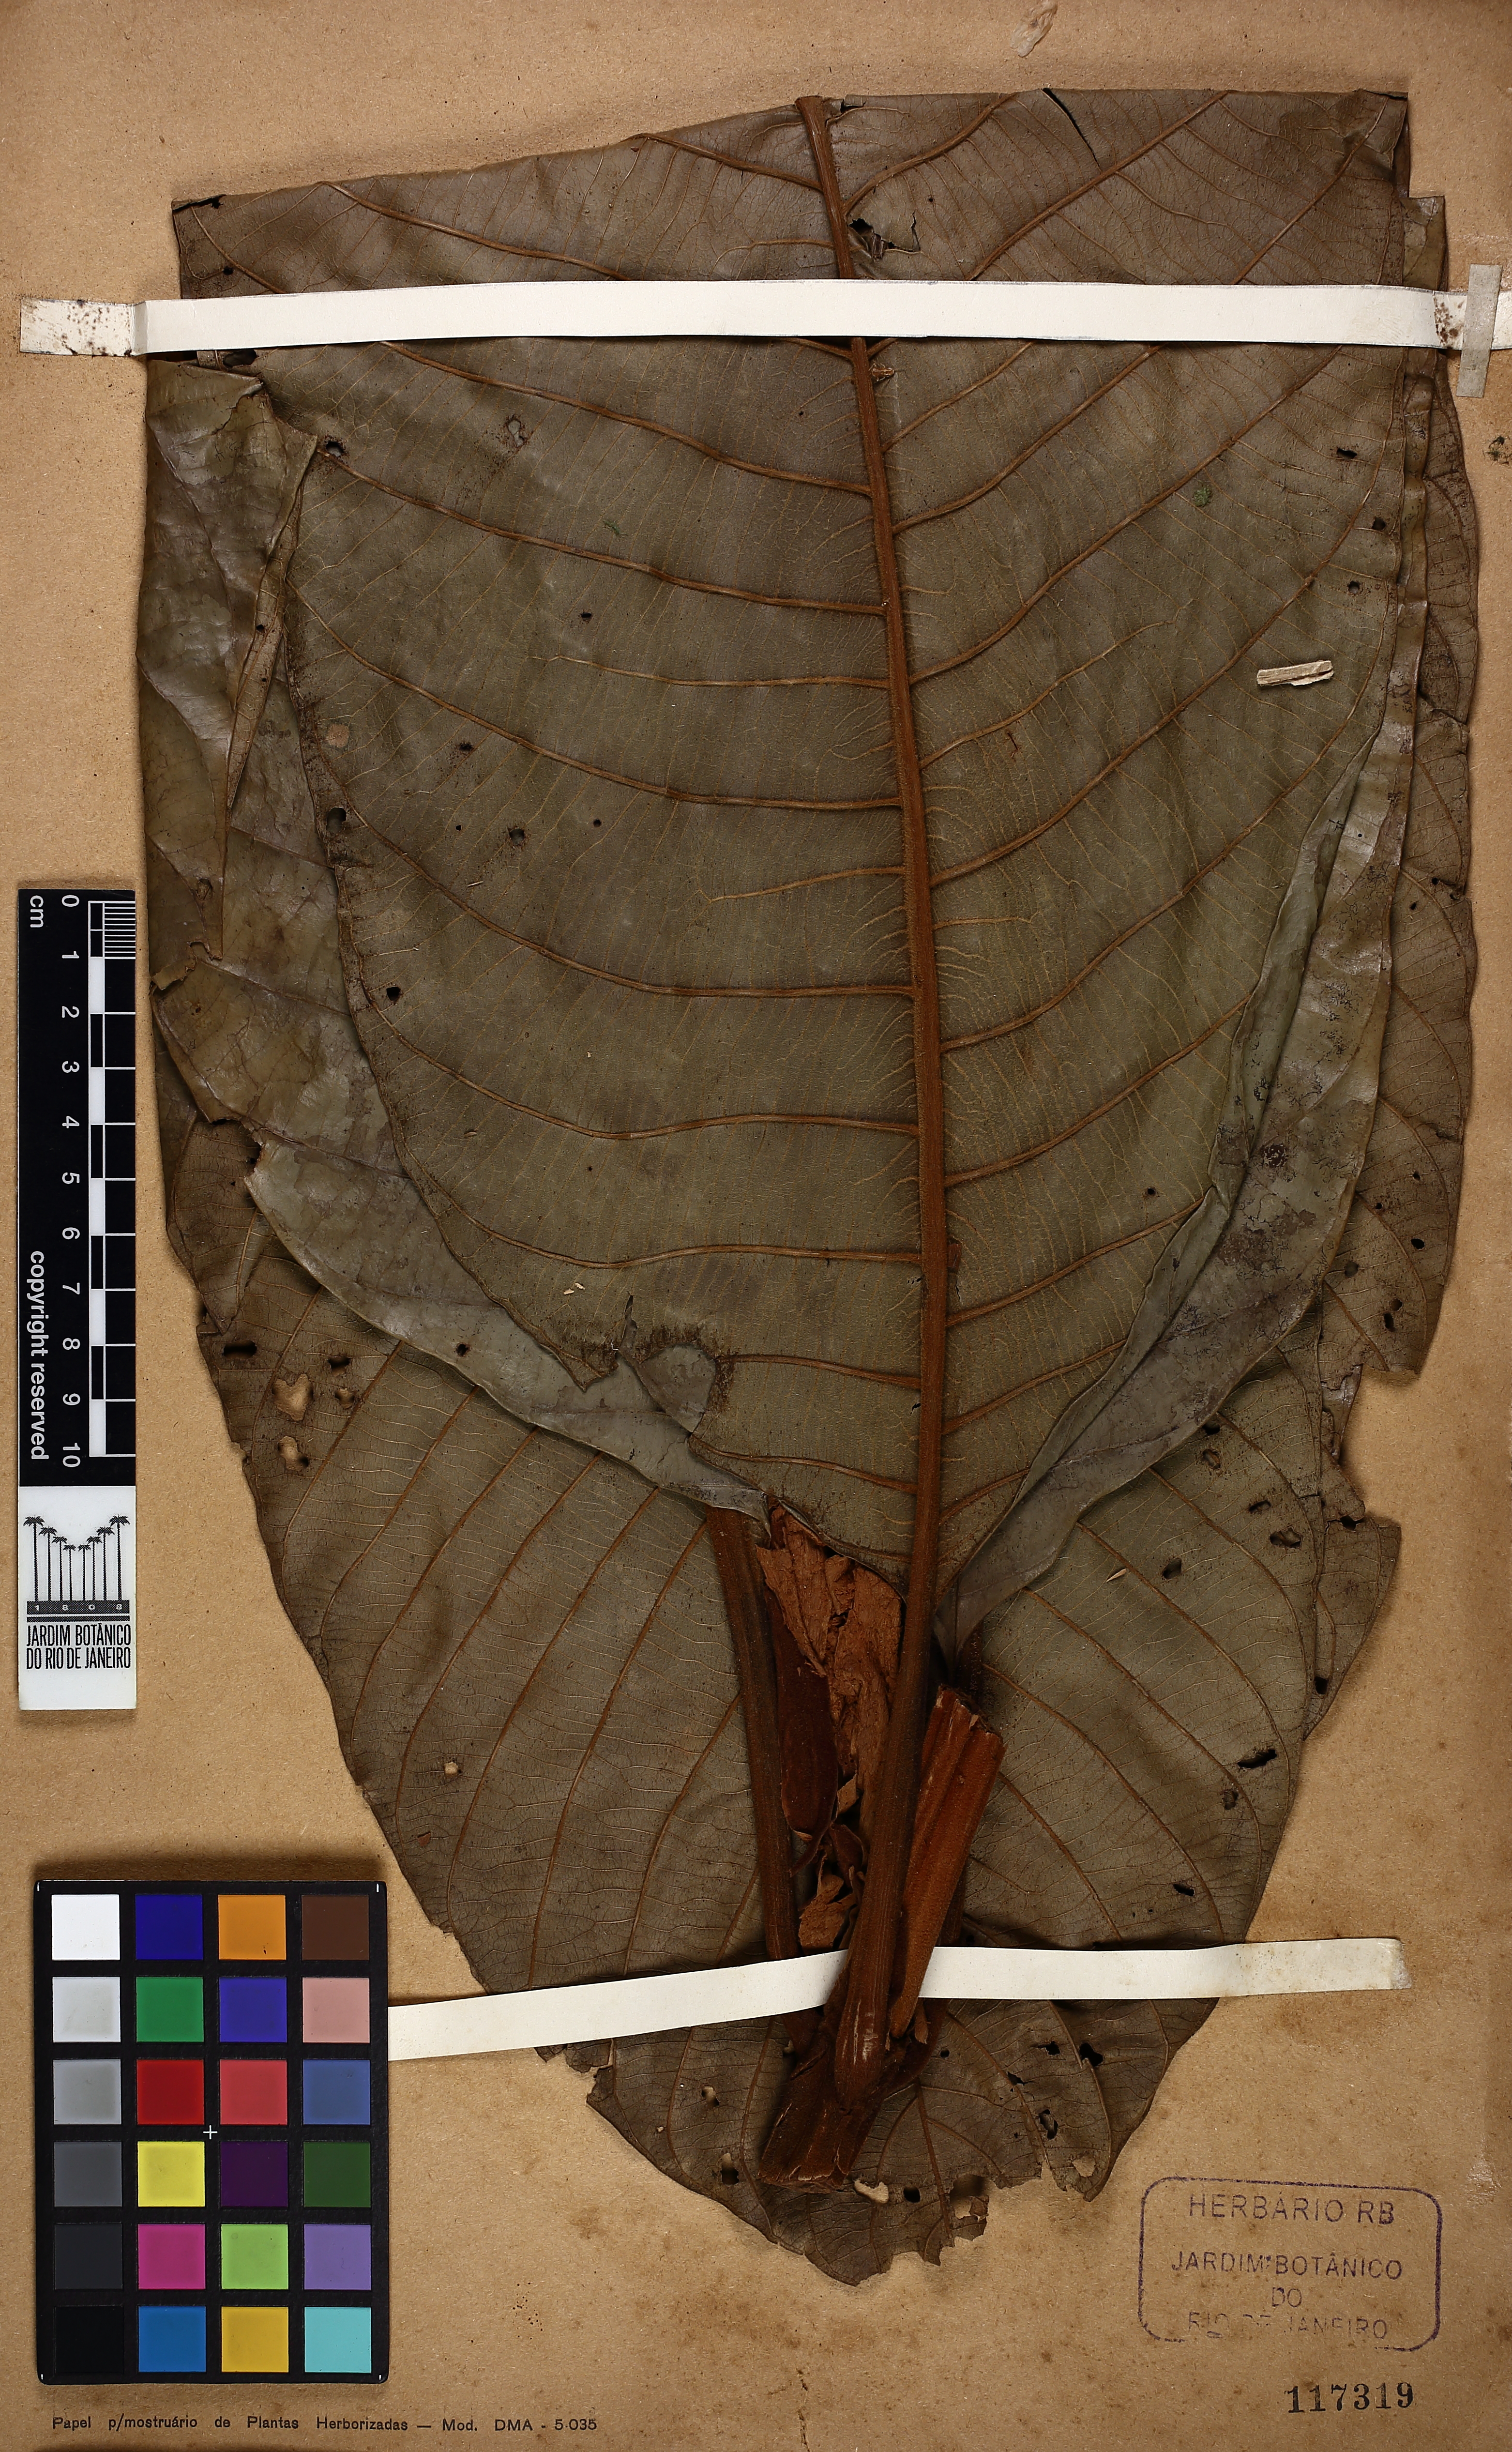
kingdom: Plantae
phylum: Tracheophyta
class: Magnoliopsida
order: Gentianales
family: Rubiaceae
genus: Remijia
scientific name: Remijia ulei
